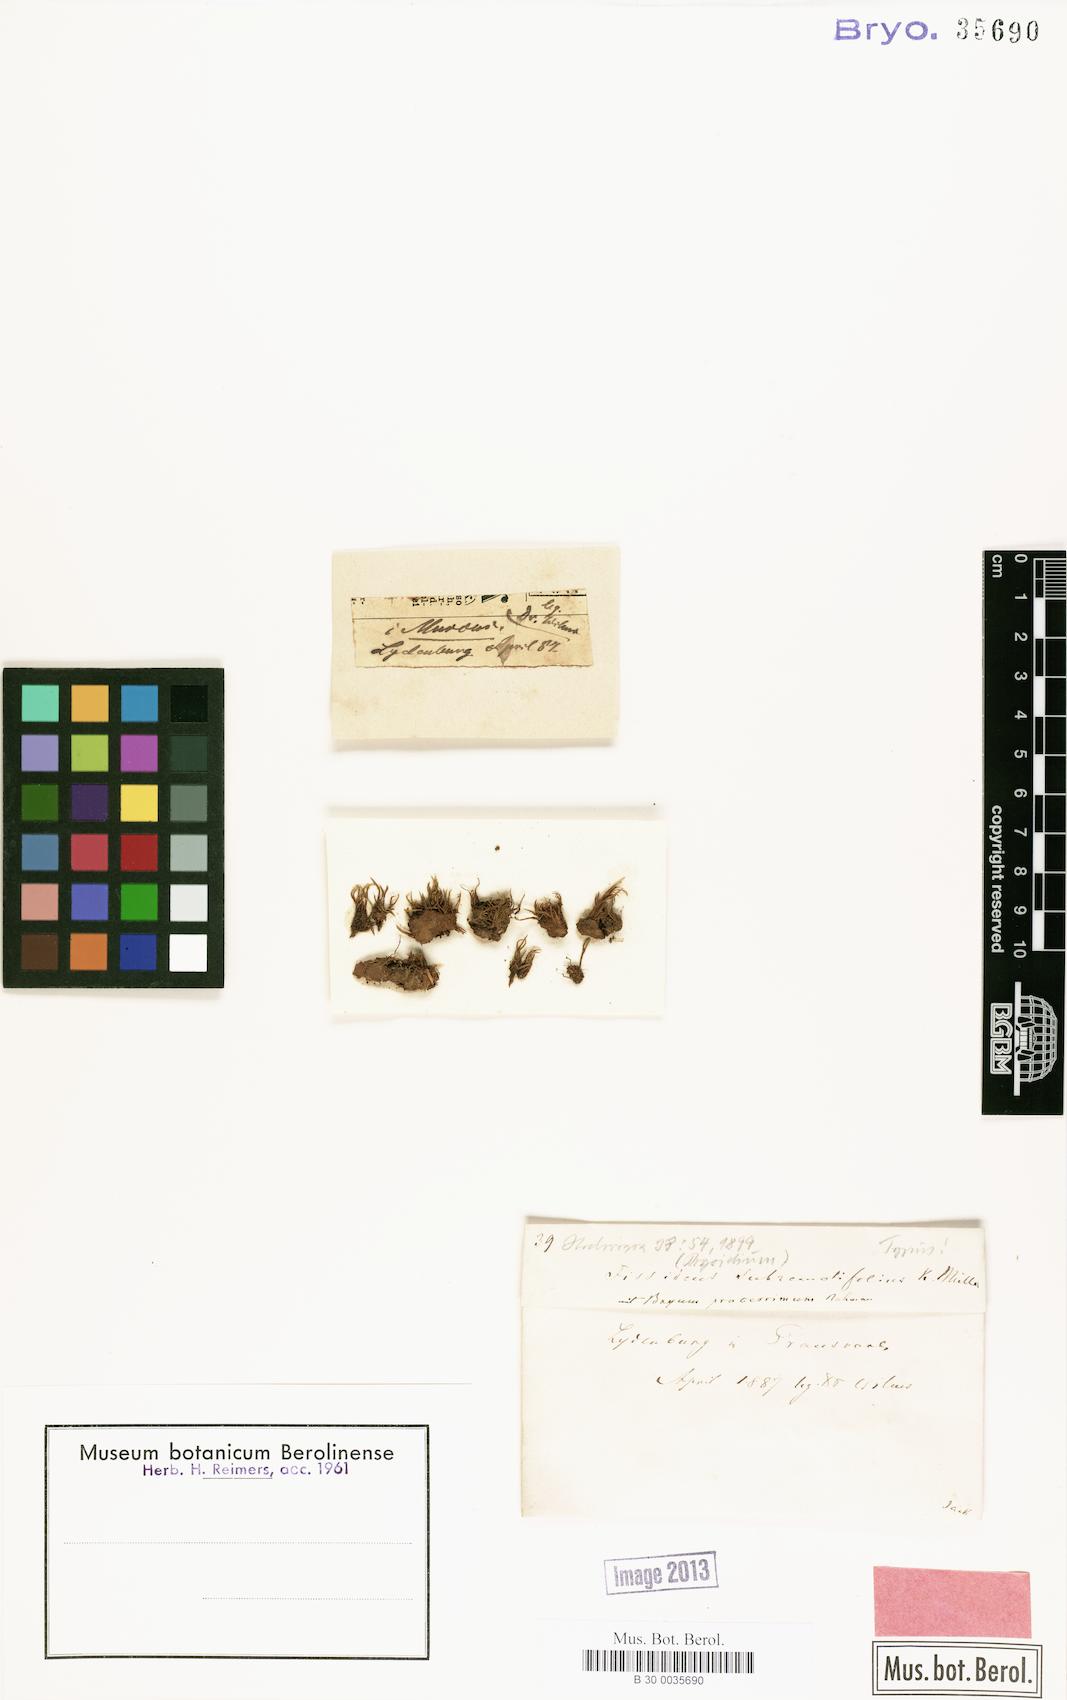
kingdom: Plantae
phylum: Bryophyta
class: Bryopsida
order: Dicranales
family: Fissidentaceae
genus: Fissidens
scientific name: Fissidens androgynus
